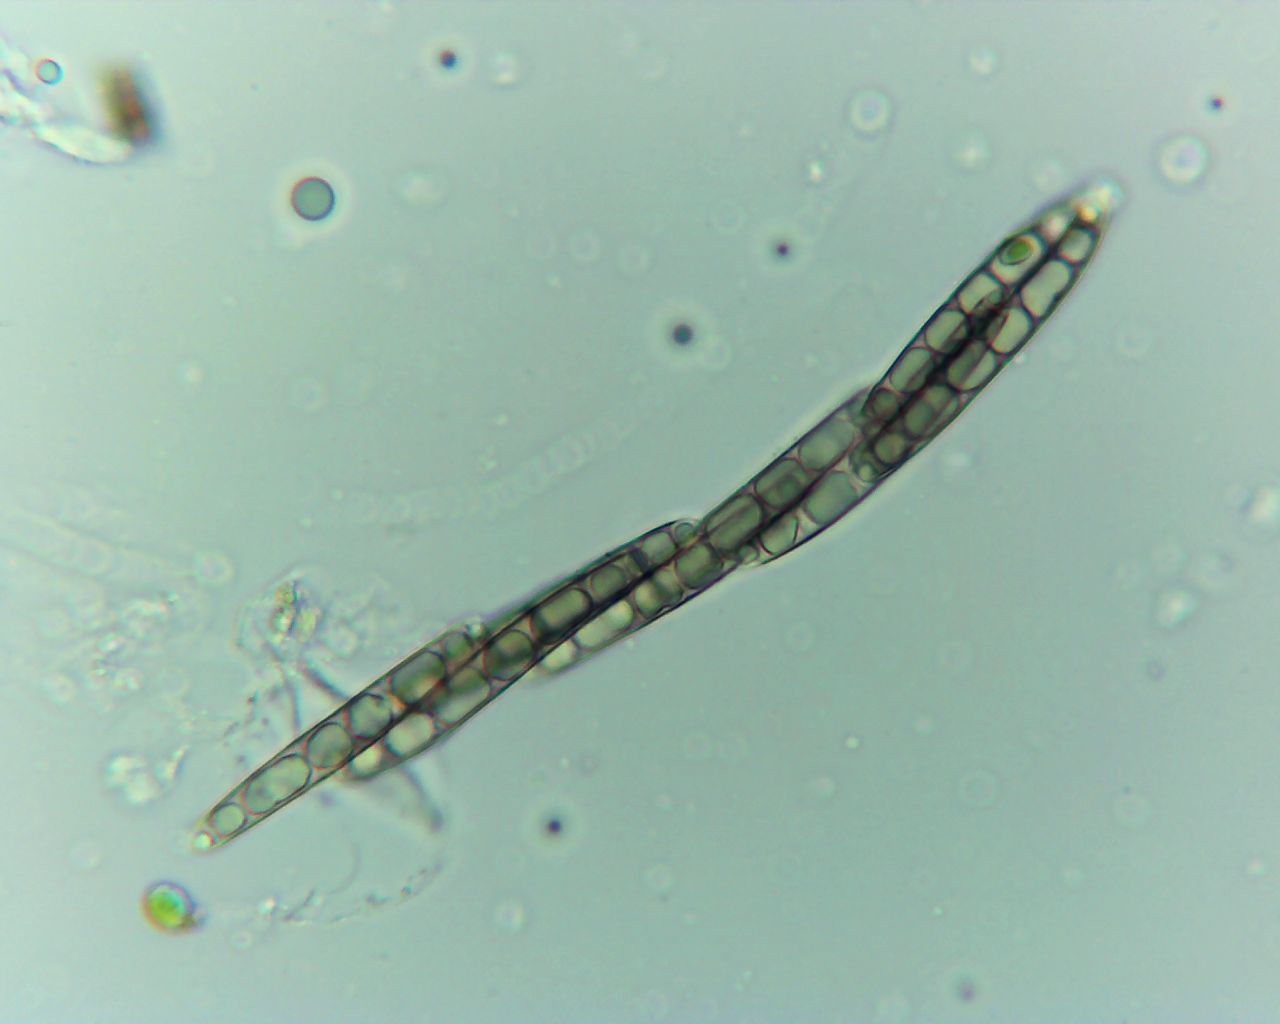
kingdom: Fungi
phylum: Ascomycota
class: Sordariomycetes
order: Xylariales
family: Melogrammataceae
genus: Melogramma
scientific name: Melogramma spiniferum
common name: bøgefod-kulhals
